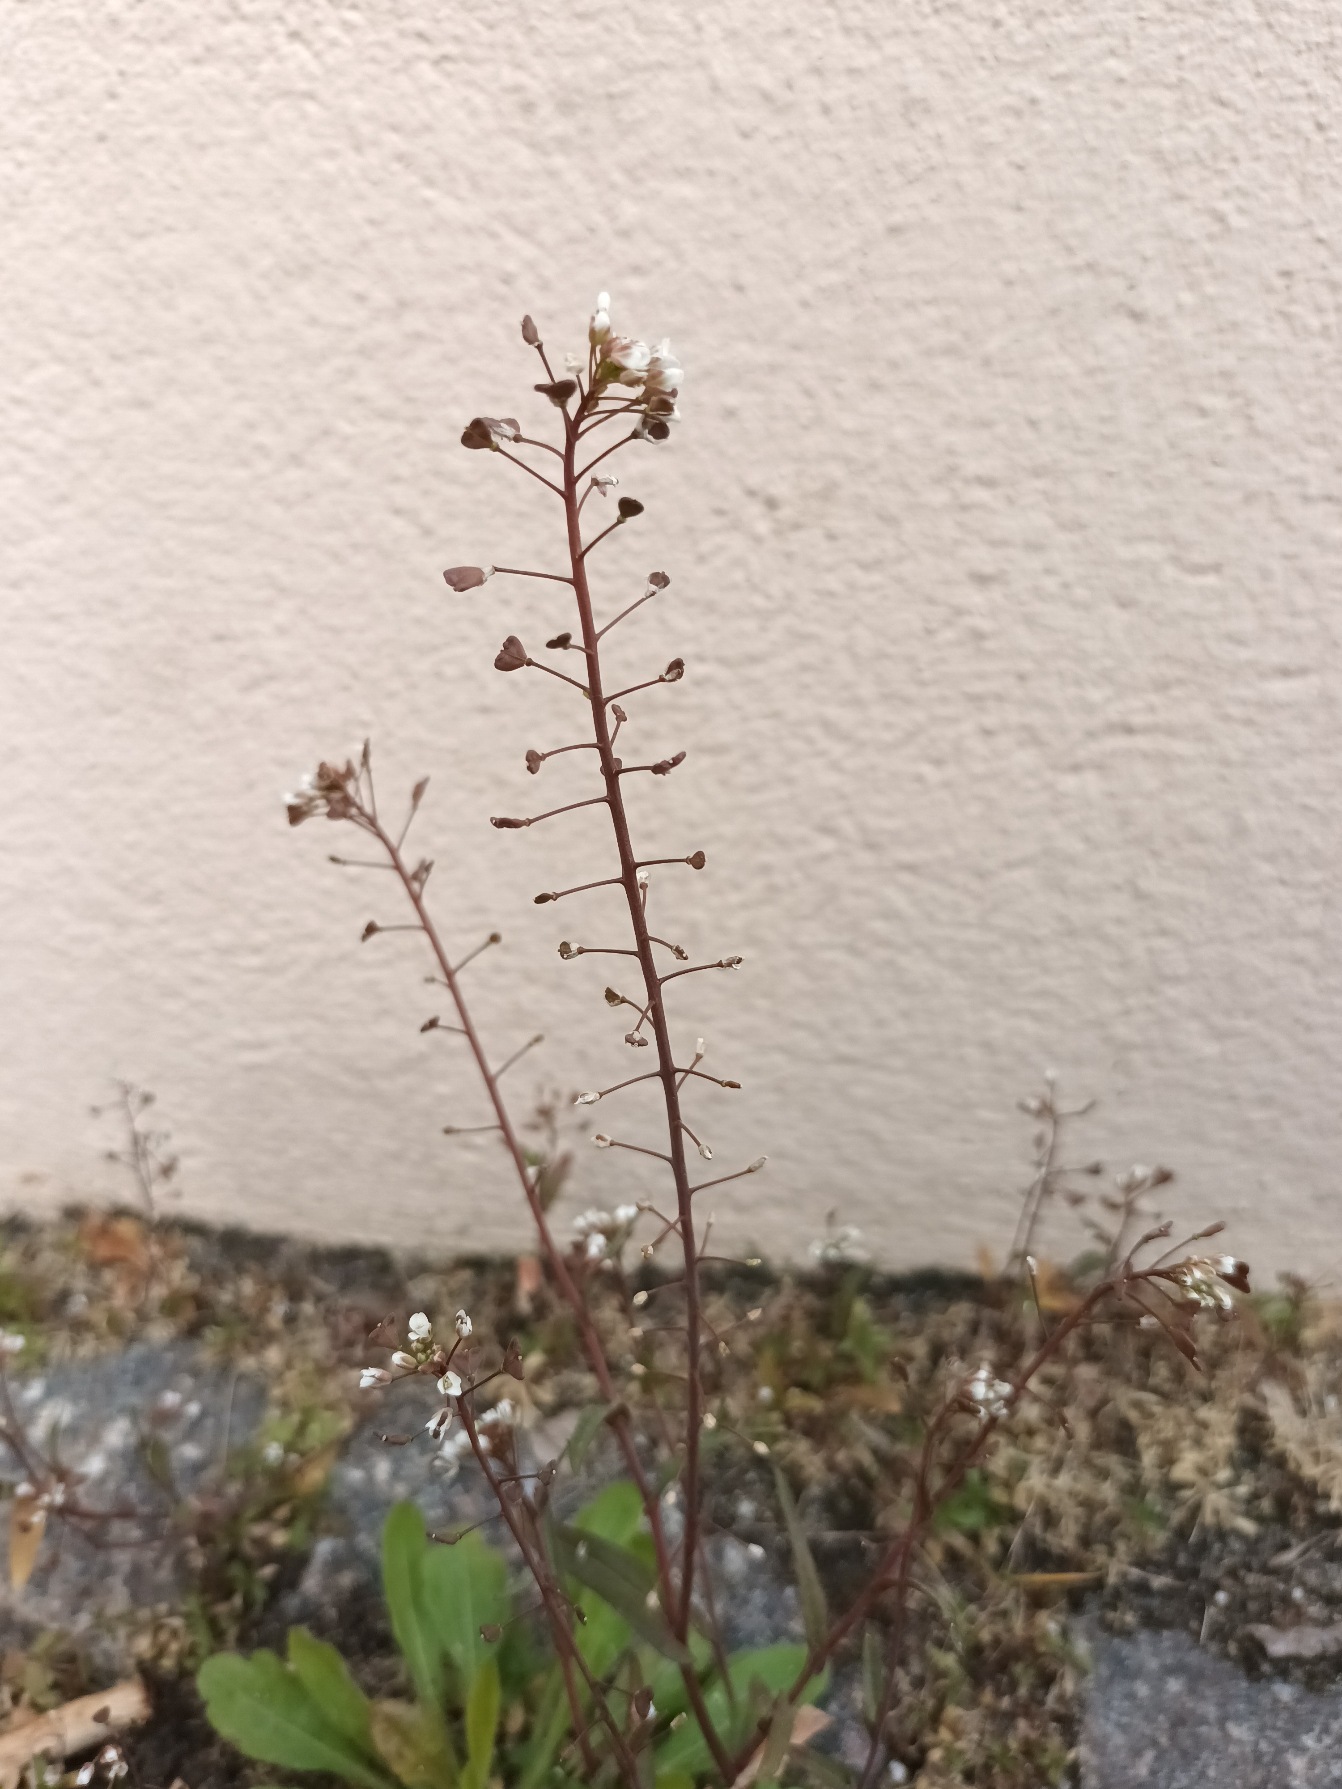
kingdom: Plantae
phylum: Tracheophyta
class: Magnoliopsida
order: Brassicales
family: Brassicaceae
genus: Capsella
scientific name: Capsella bursa-pastoris
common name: Hyrdetaske
